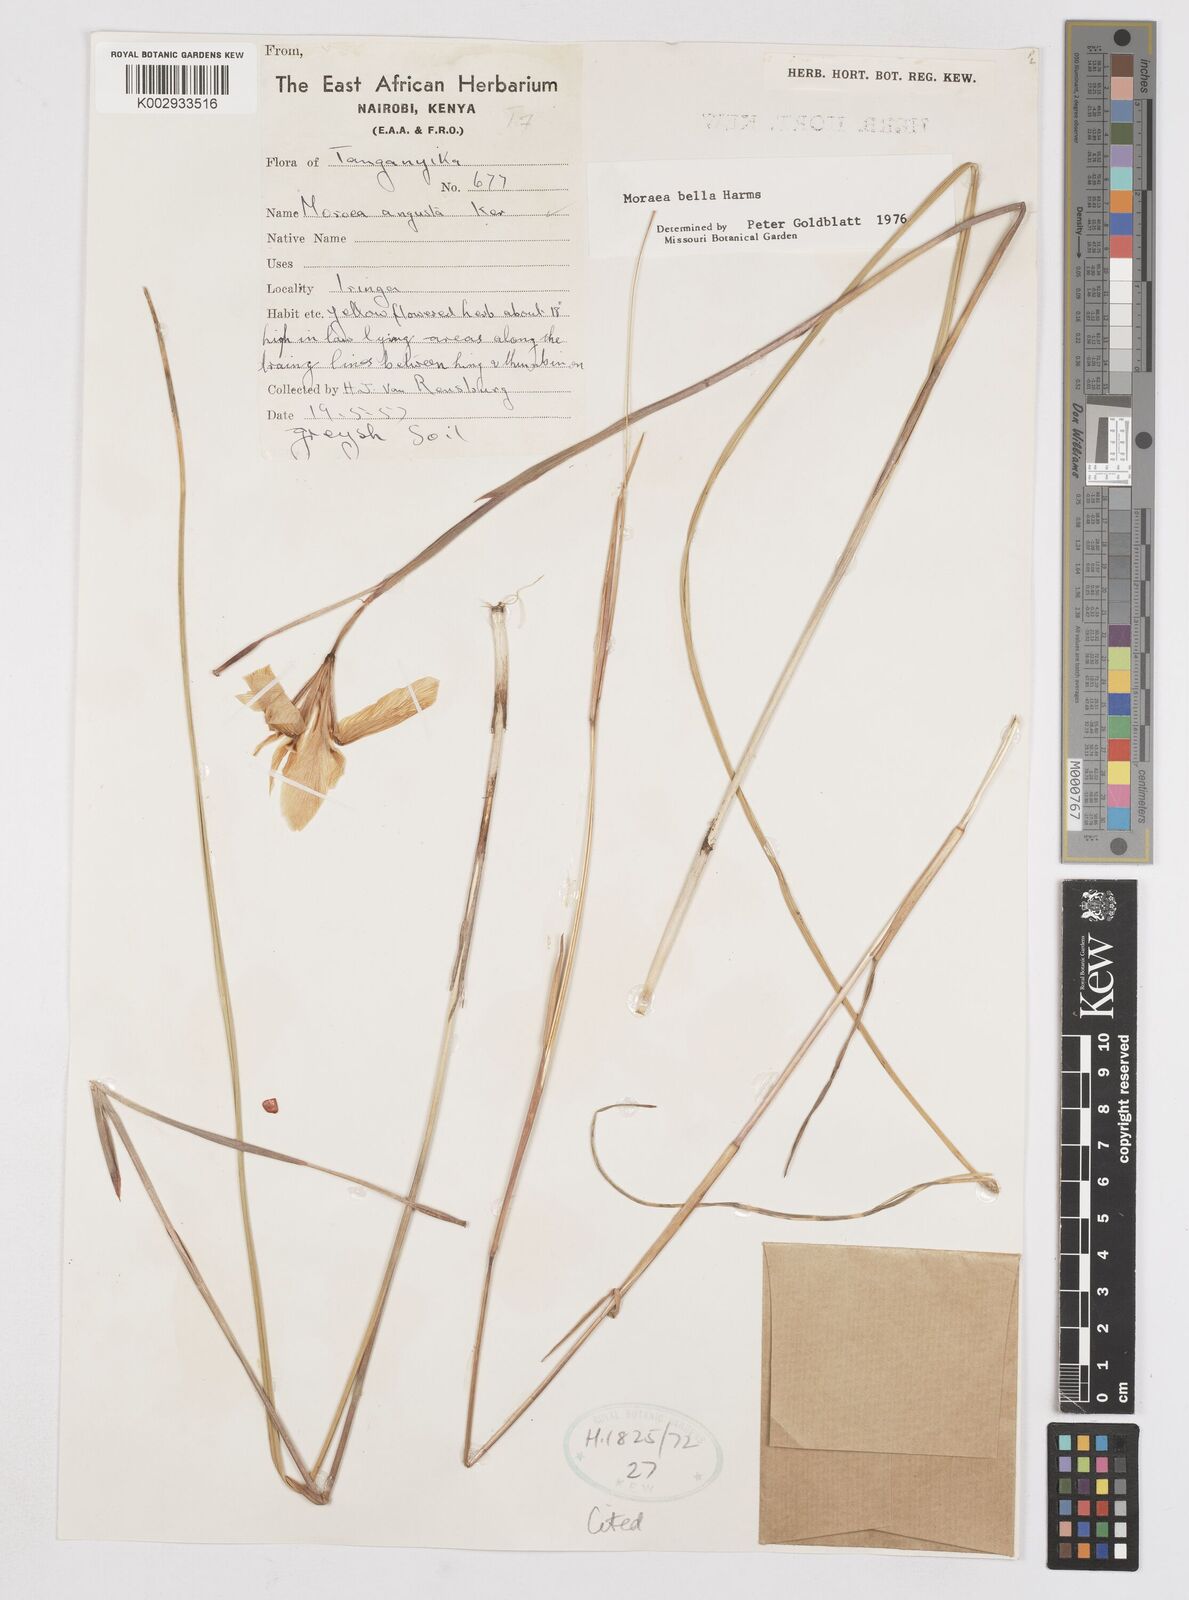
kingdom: Plantae
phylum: Tracheophyta
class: Liliopsida
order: Asparagales
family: Iridaceae
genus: Moraea
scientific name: Moraea bella
